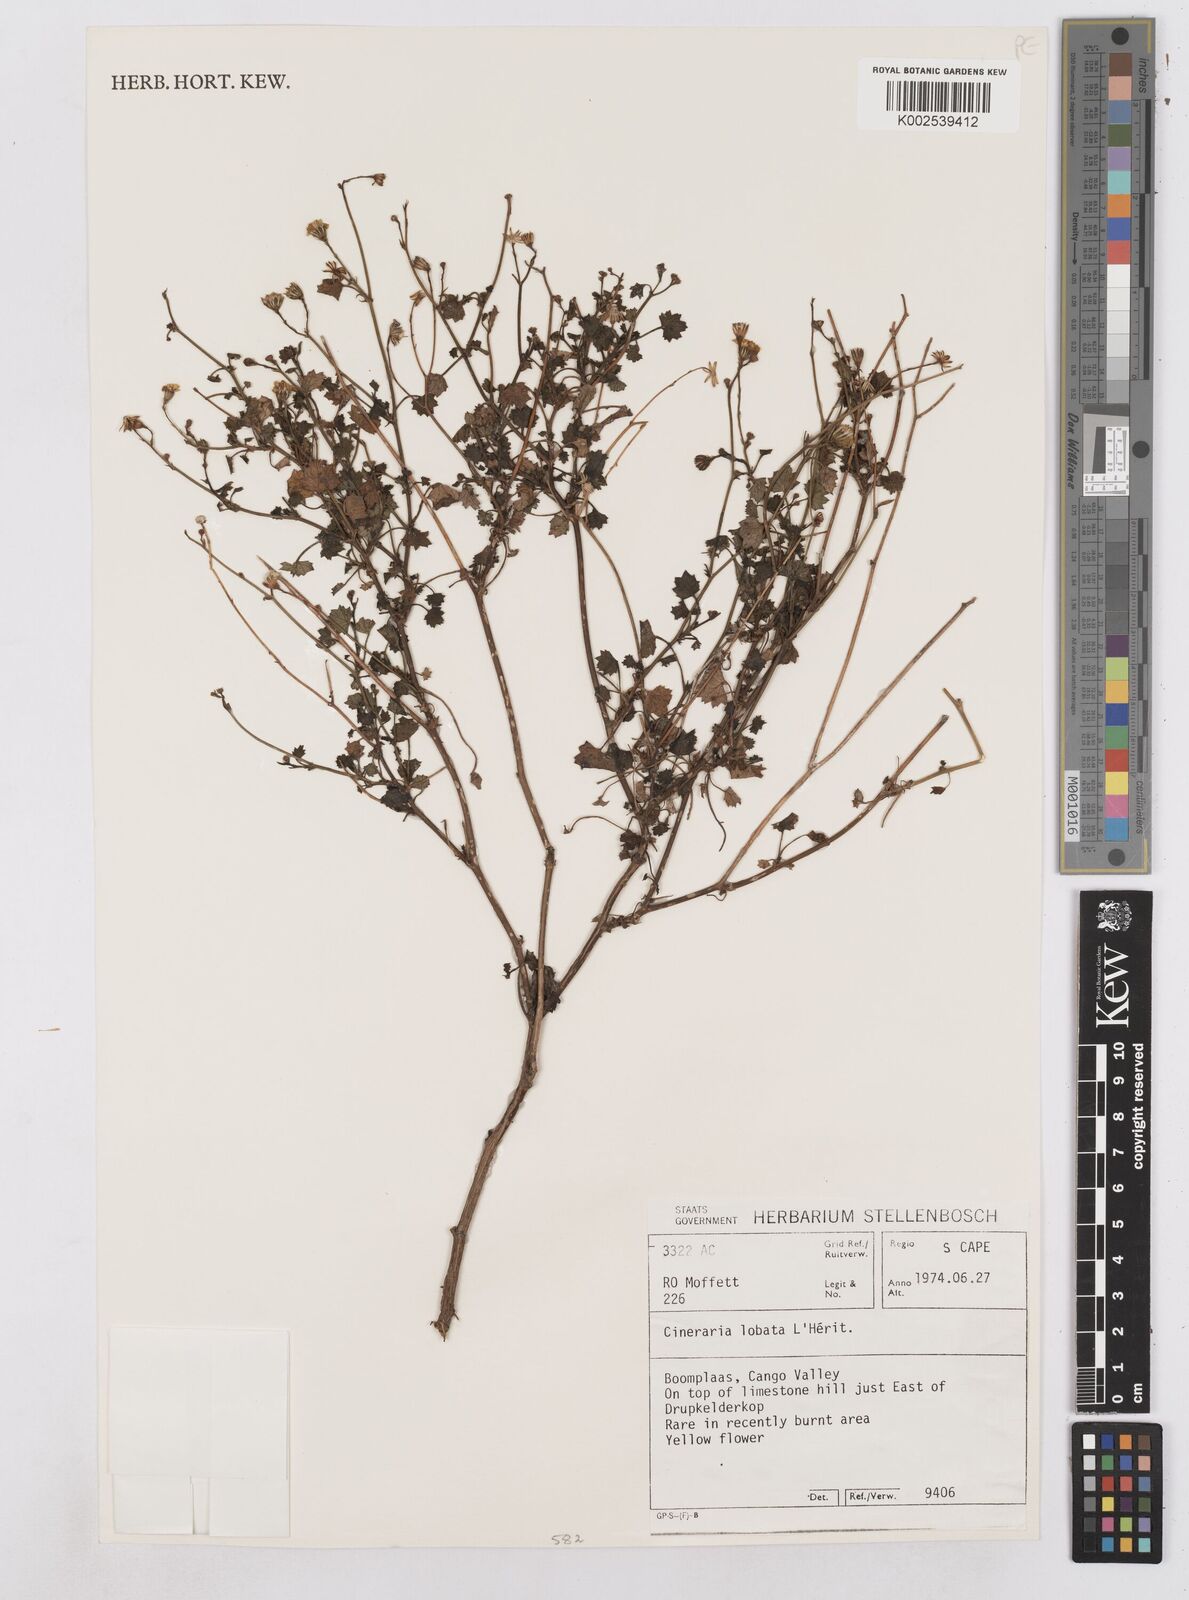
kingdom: Plantae
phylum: Tracheophyta
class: Magnoliopsida
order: Asterales
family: Asteraceae
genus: Cineraria
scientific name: Cineraria
